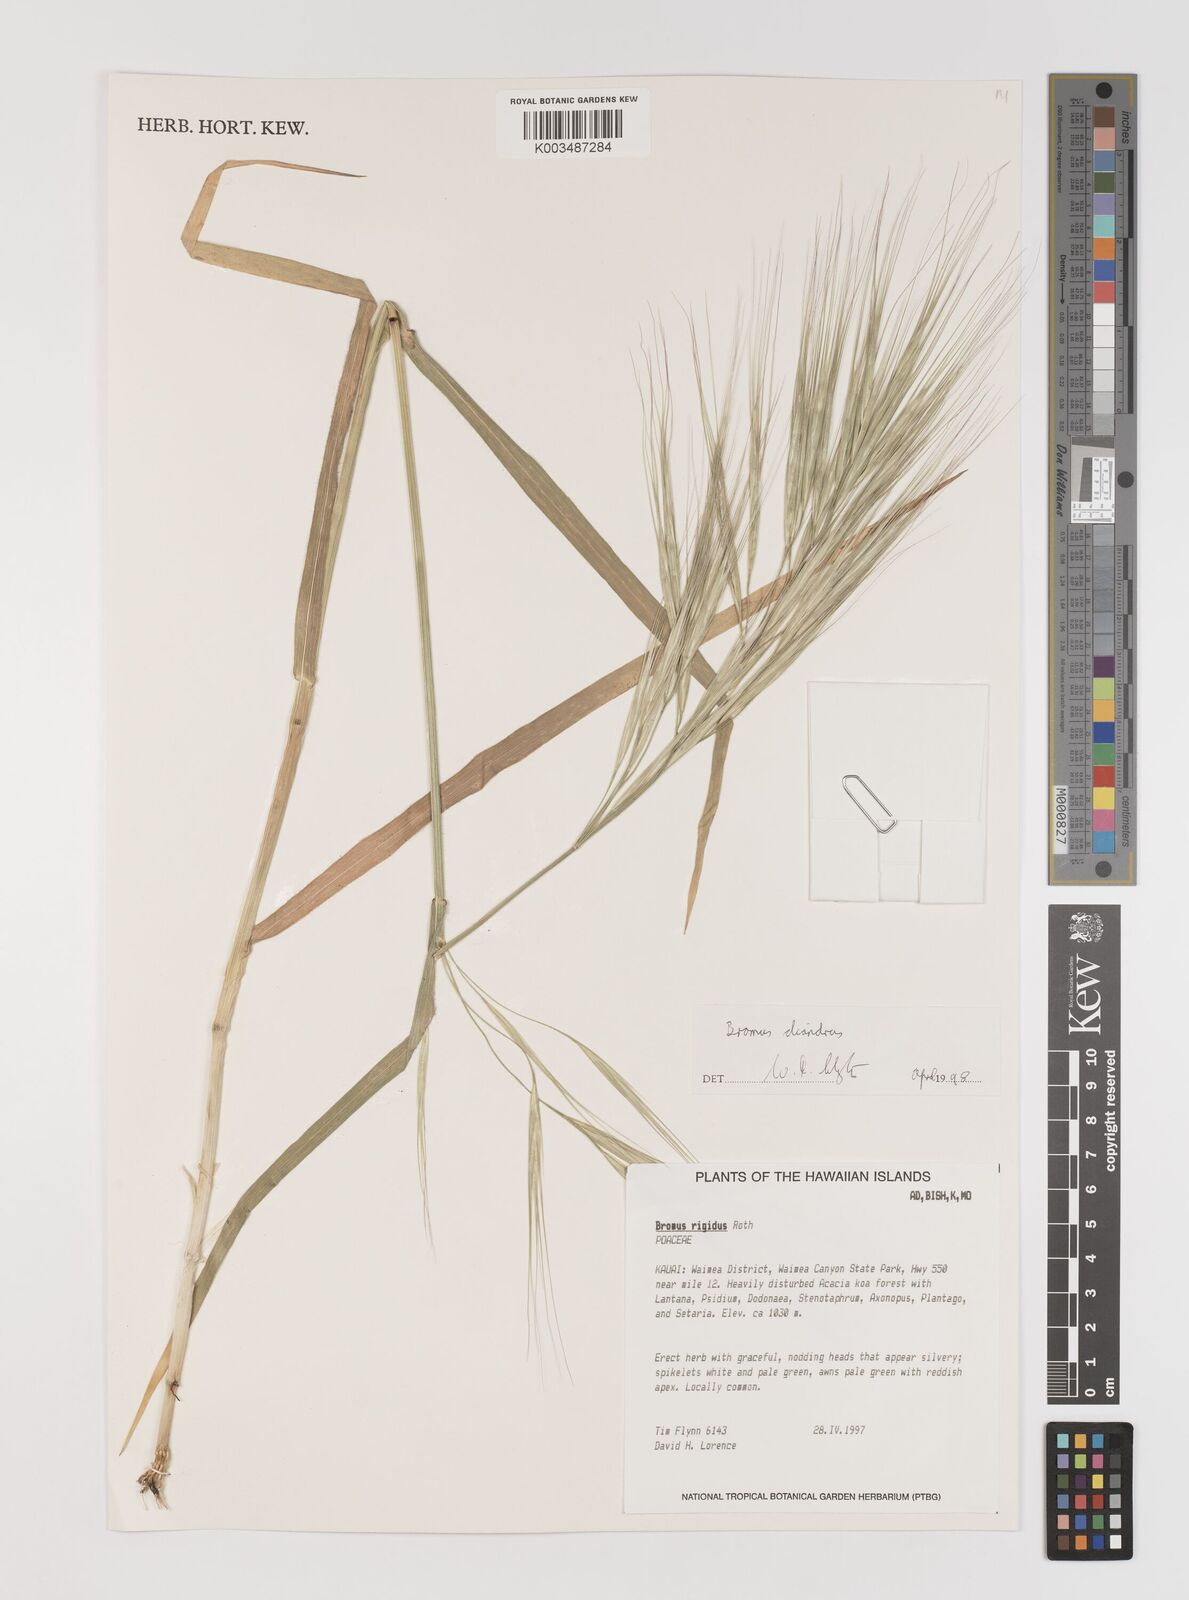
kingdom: Plantae
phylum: Tracheophyta
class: Liliopsida
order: Poales
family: Poaceae
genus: Bromus
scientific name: Bromus
